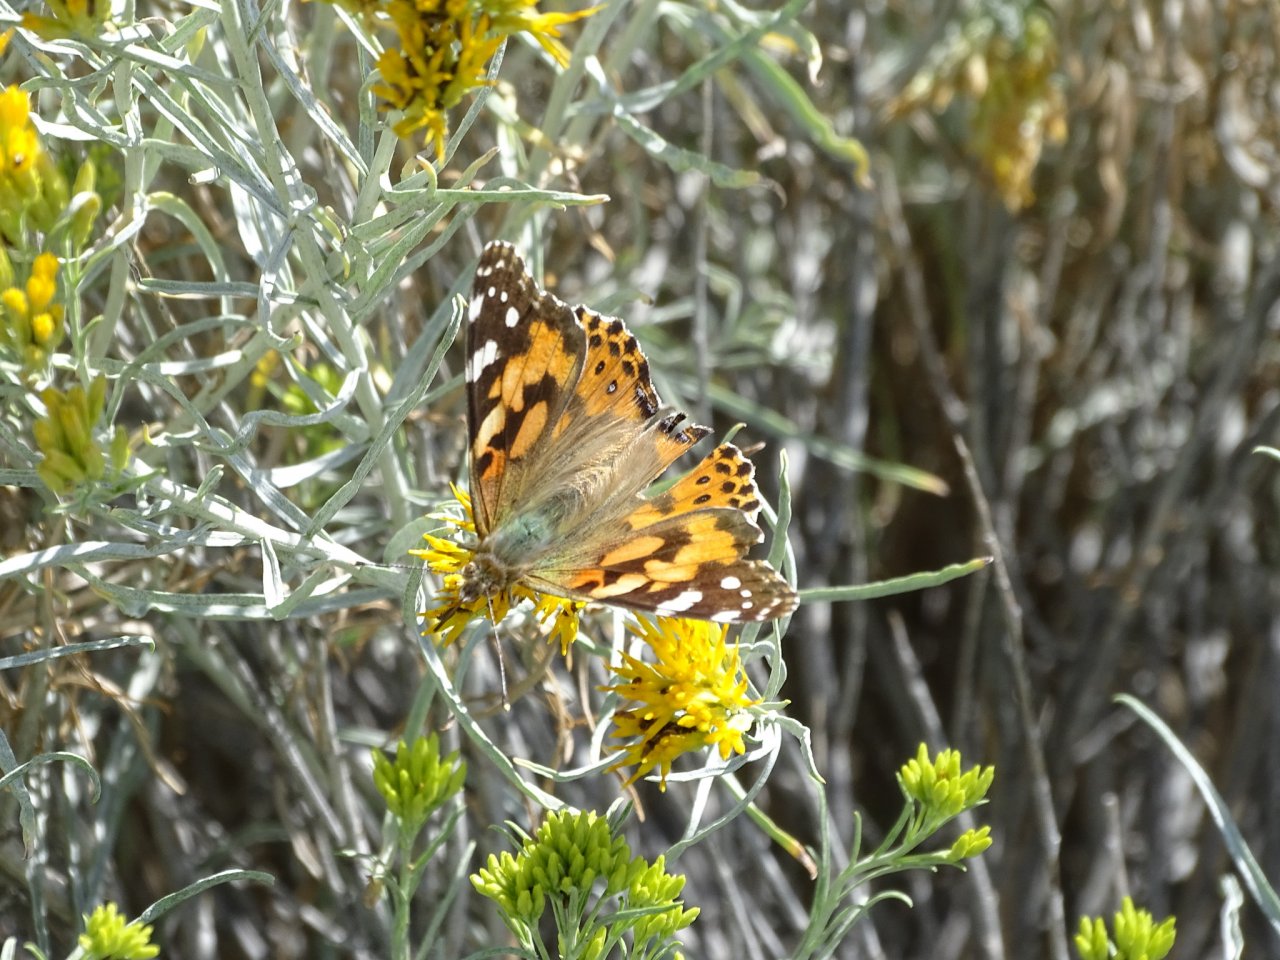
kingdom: Animalia
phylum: Arthropoda
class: Insecta
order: Lepidoptera
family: Nymphalidae
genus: Vanessa
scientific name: Vanessa cardui
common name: Painted Lady
